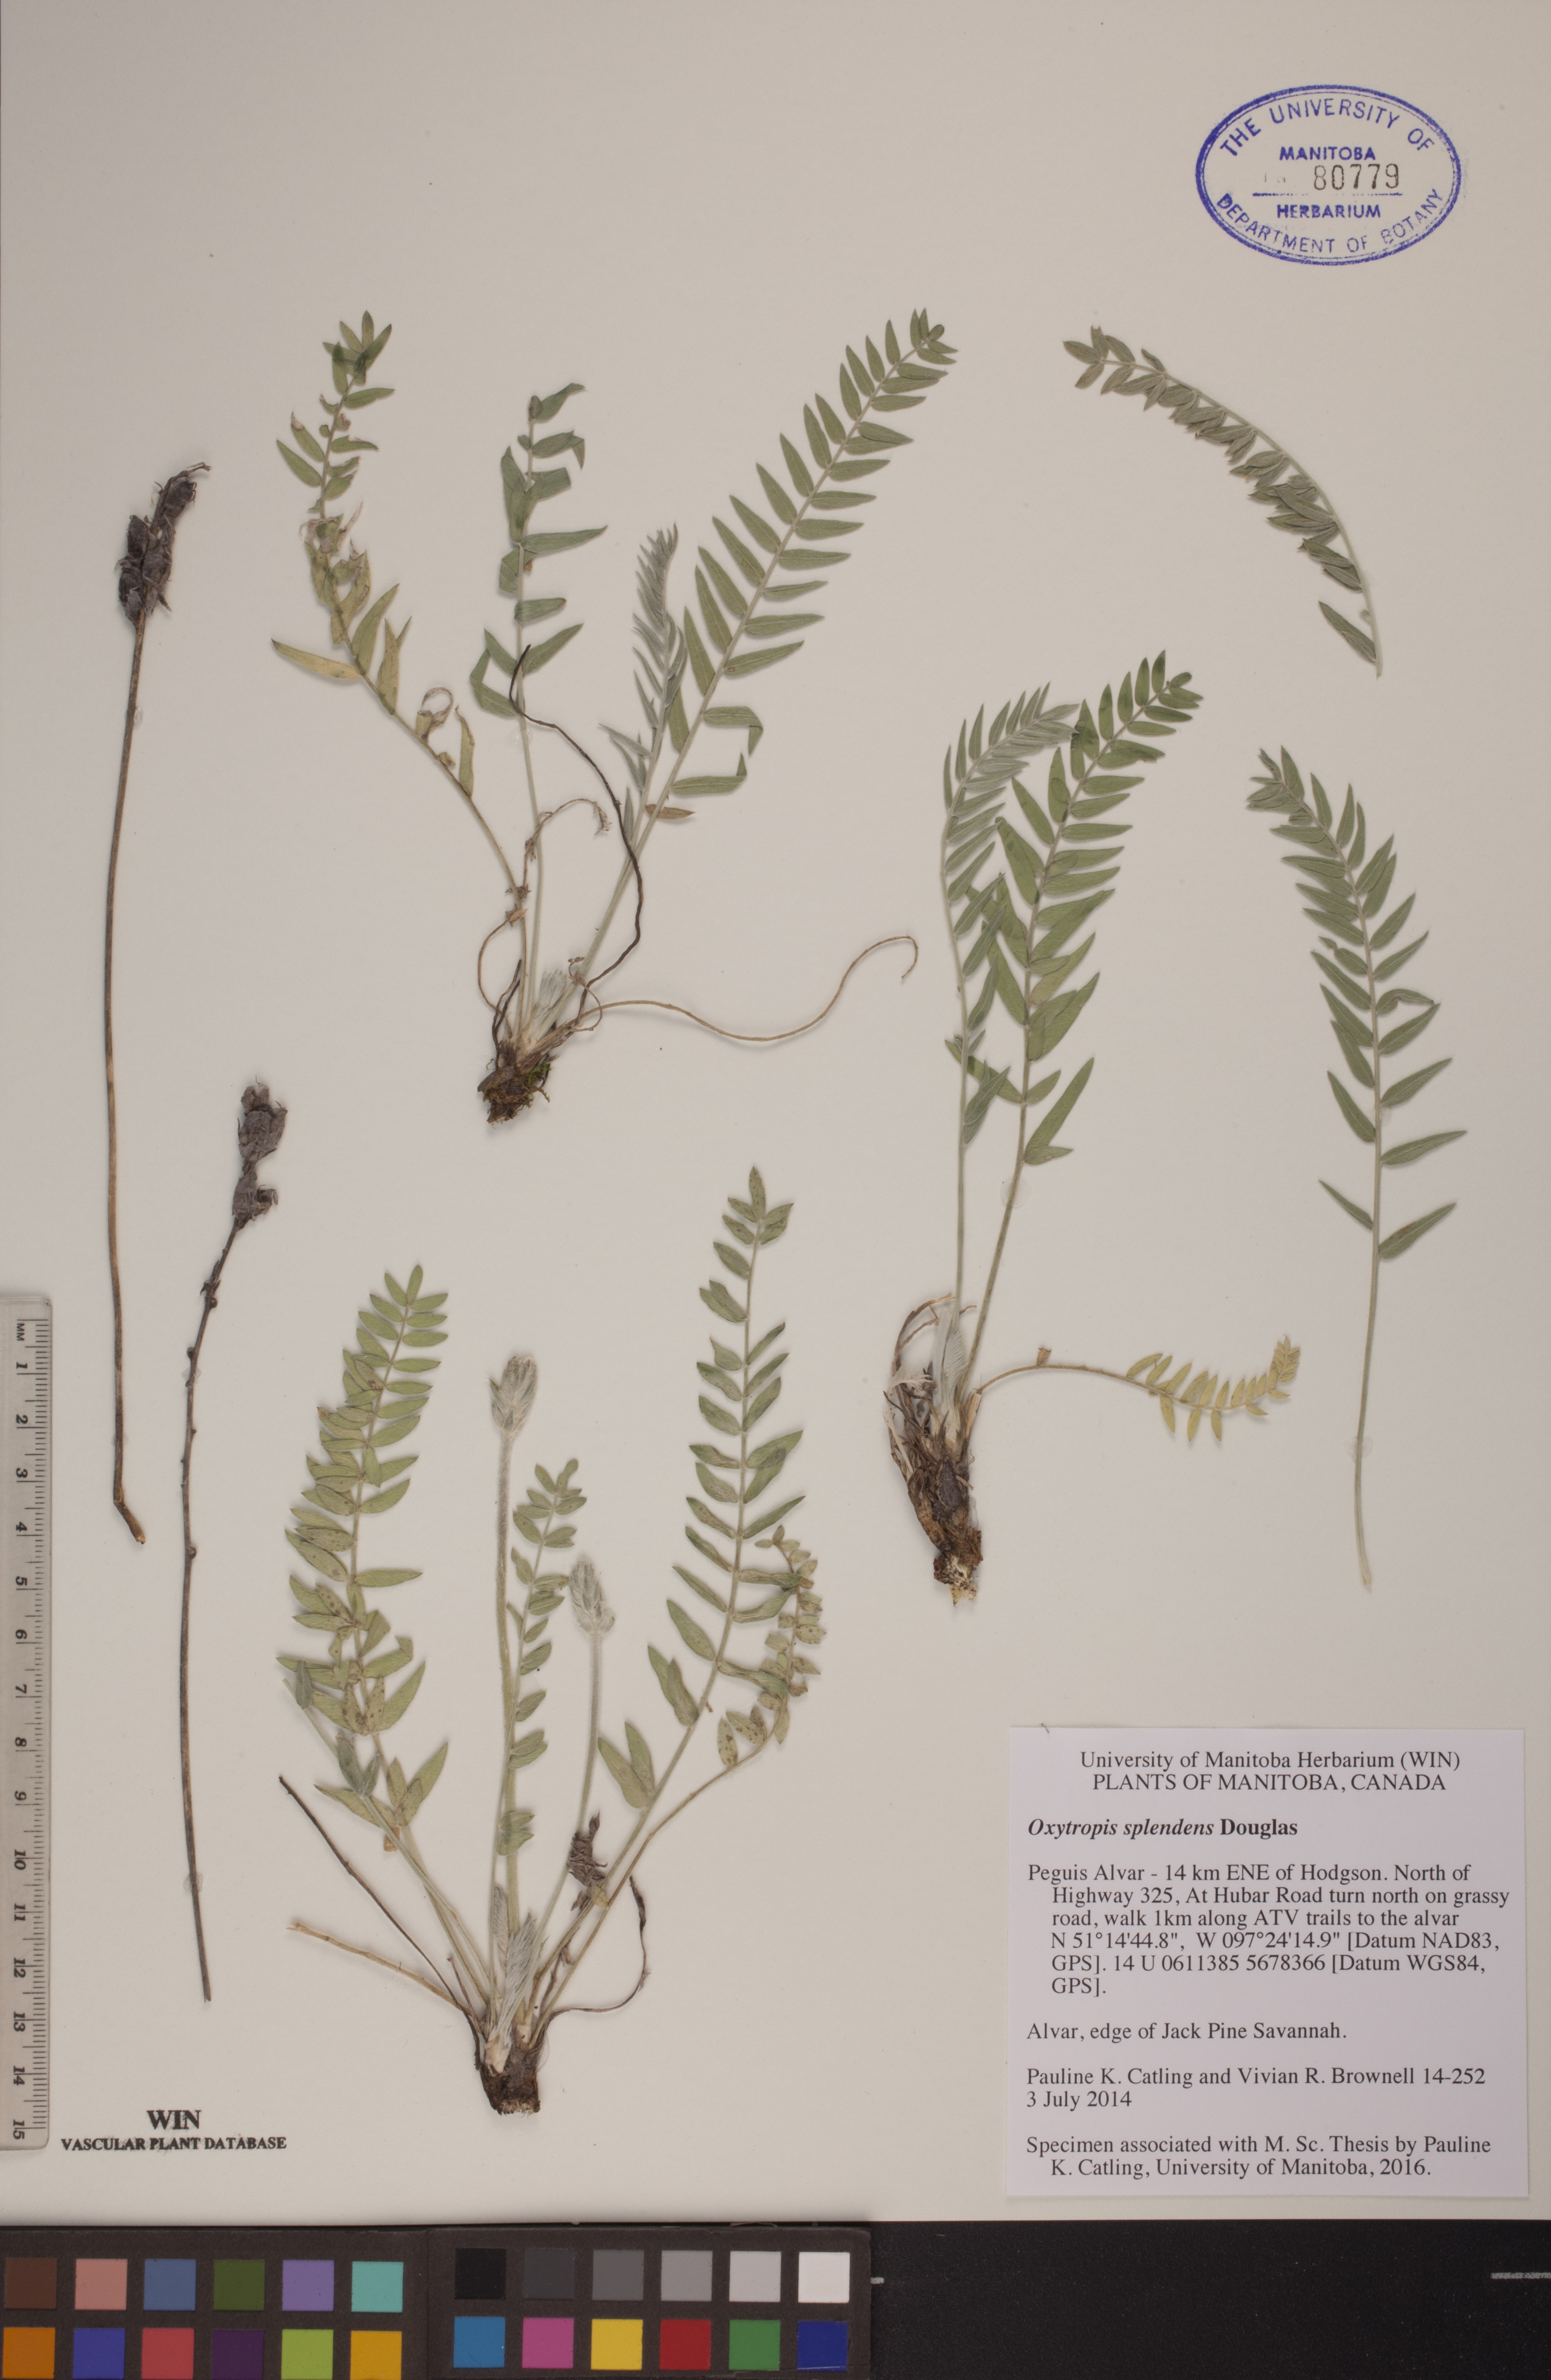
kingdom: Plantae
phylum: Tracheophyta
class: Magnoliopsida
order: Fabales
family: Fabaceae
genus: Oxytropis
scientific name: Oxytropis splendens
